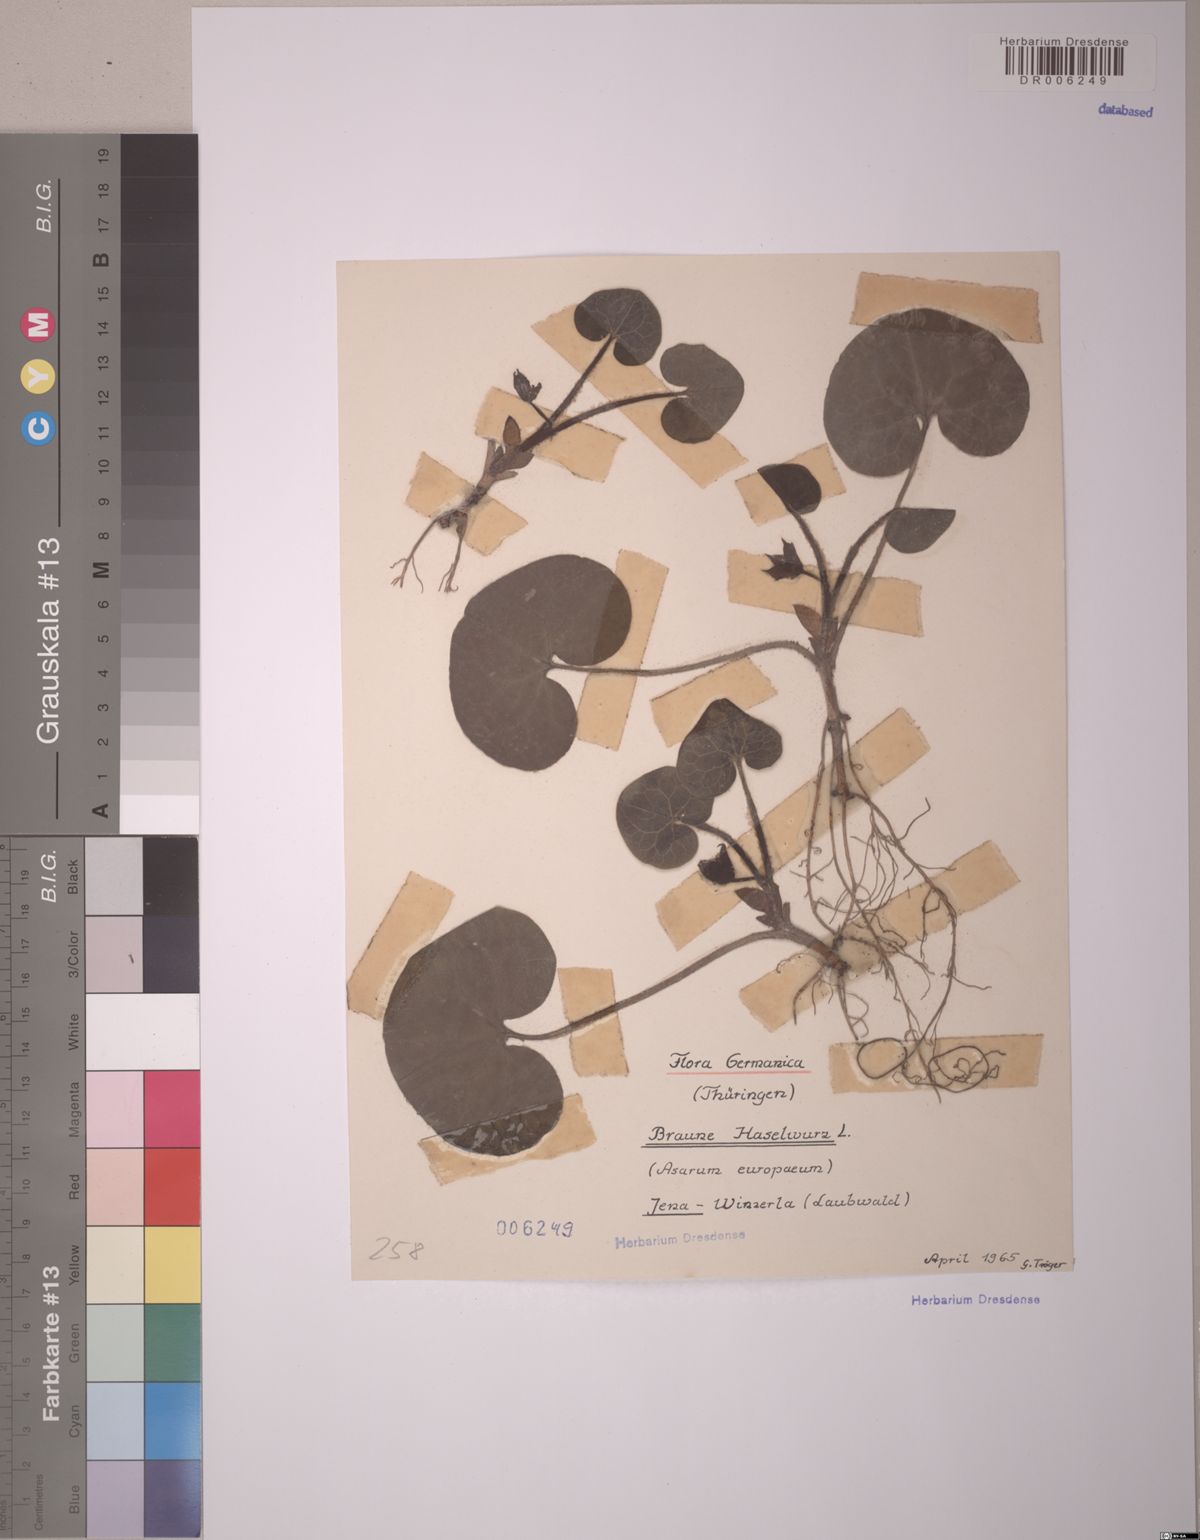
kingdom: Plantae
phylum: Tracheophyta
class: Magnoliopsida
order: Piperales
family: Aristolochiaceae
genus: Asarum
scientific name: Asarum europaeum
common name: Asarabacca
